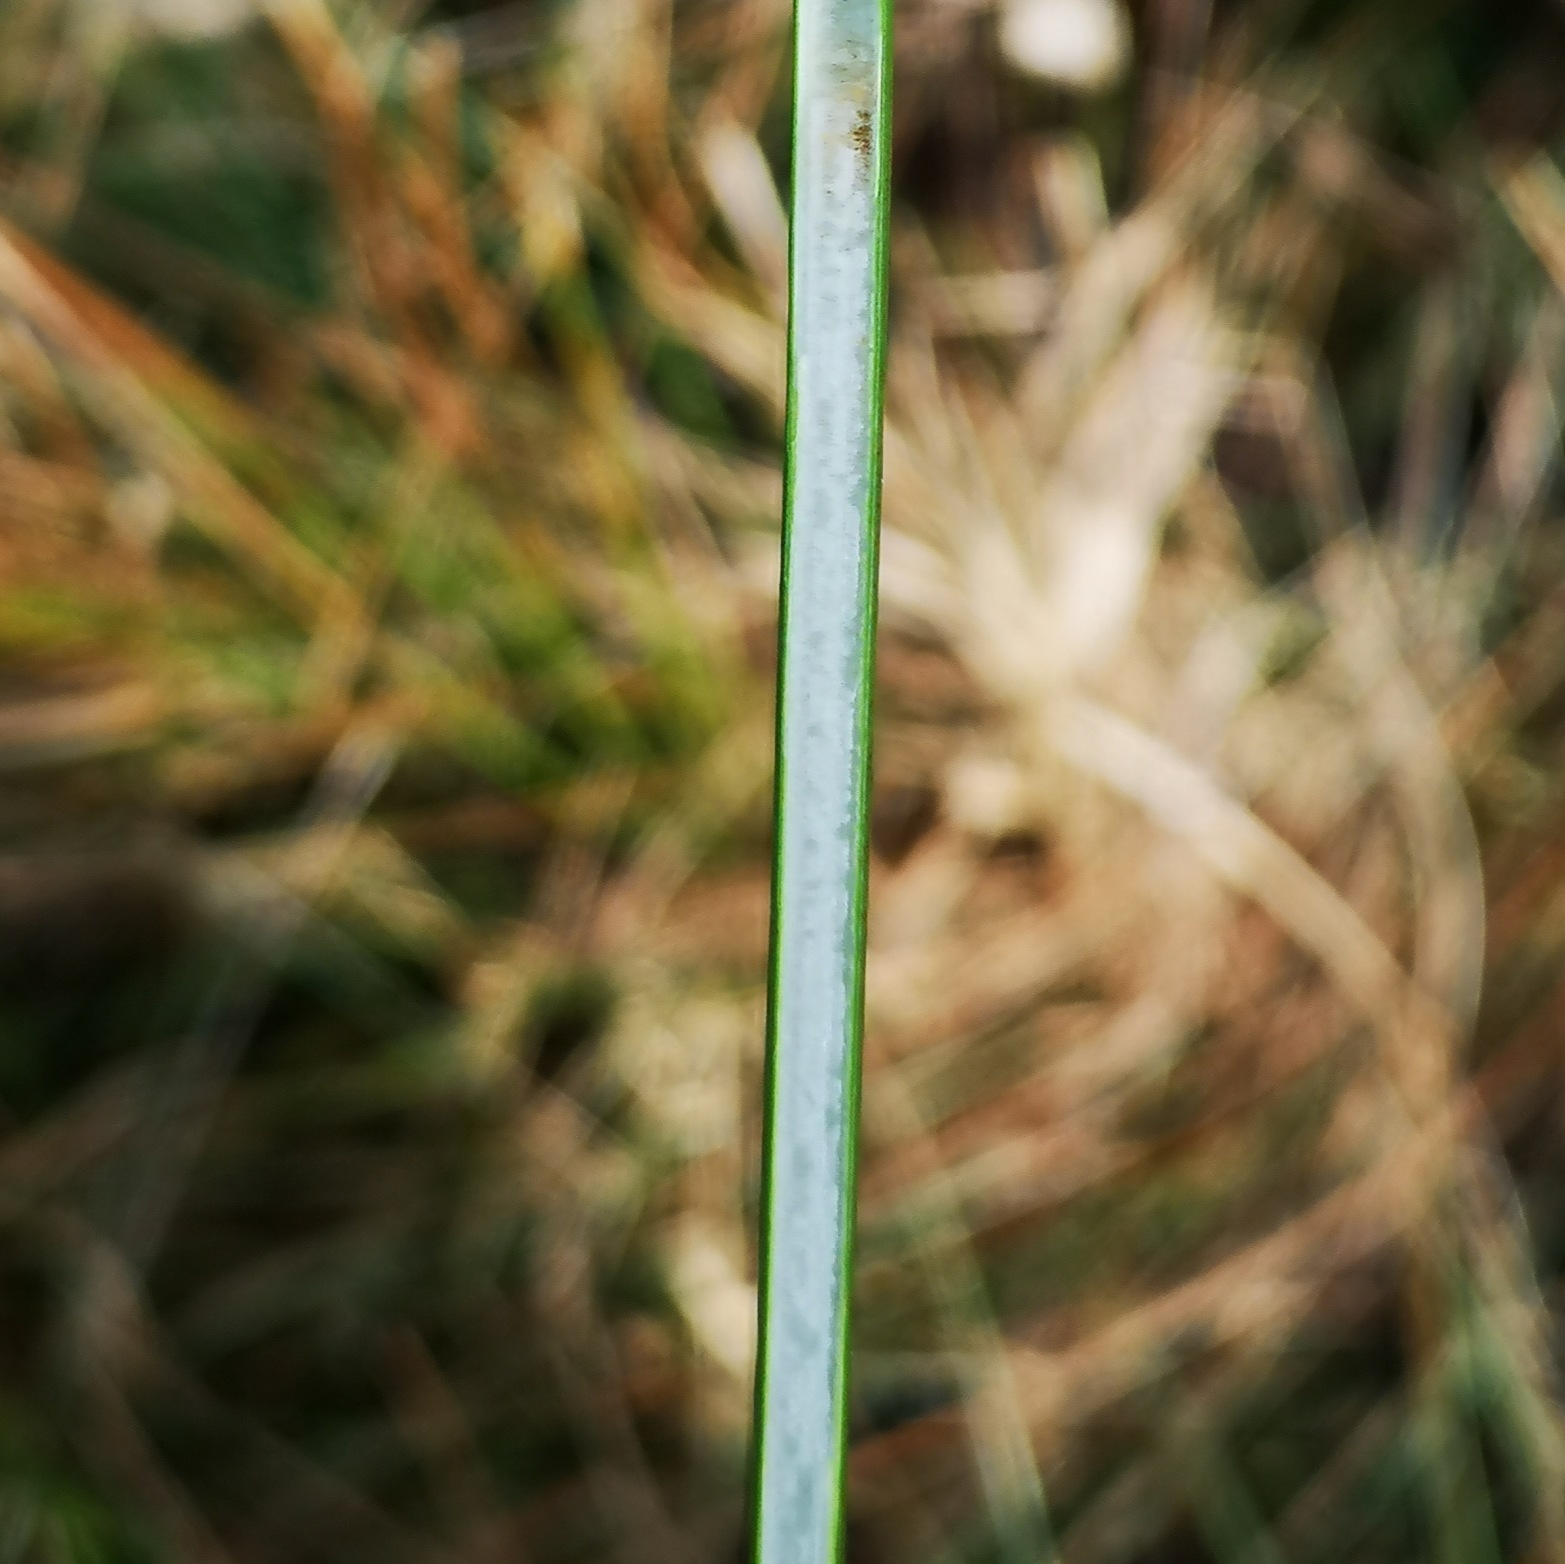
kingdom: Plantae
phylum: Tracheophyta
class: Liliopsida
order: Poales
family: Juncaceae
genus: Juncus
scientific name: Juncus effusus
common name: Lyse-siv
